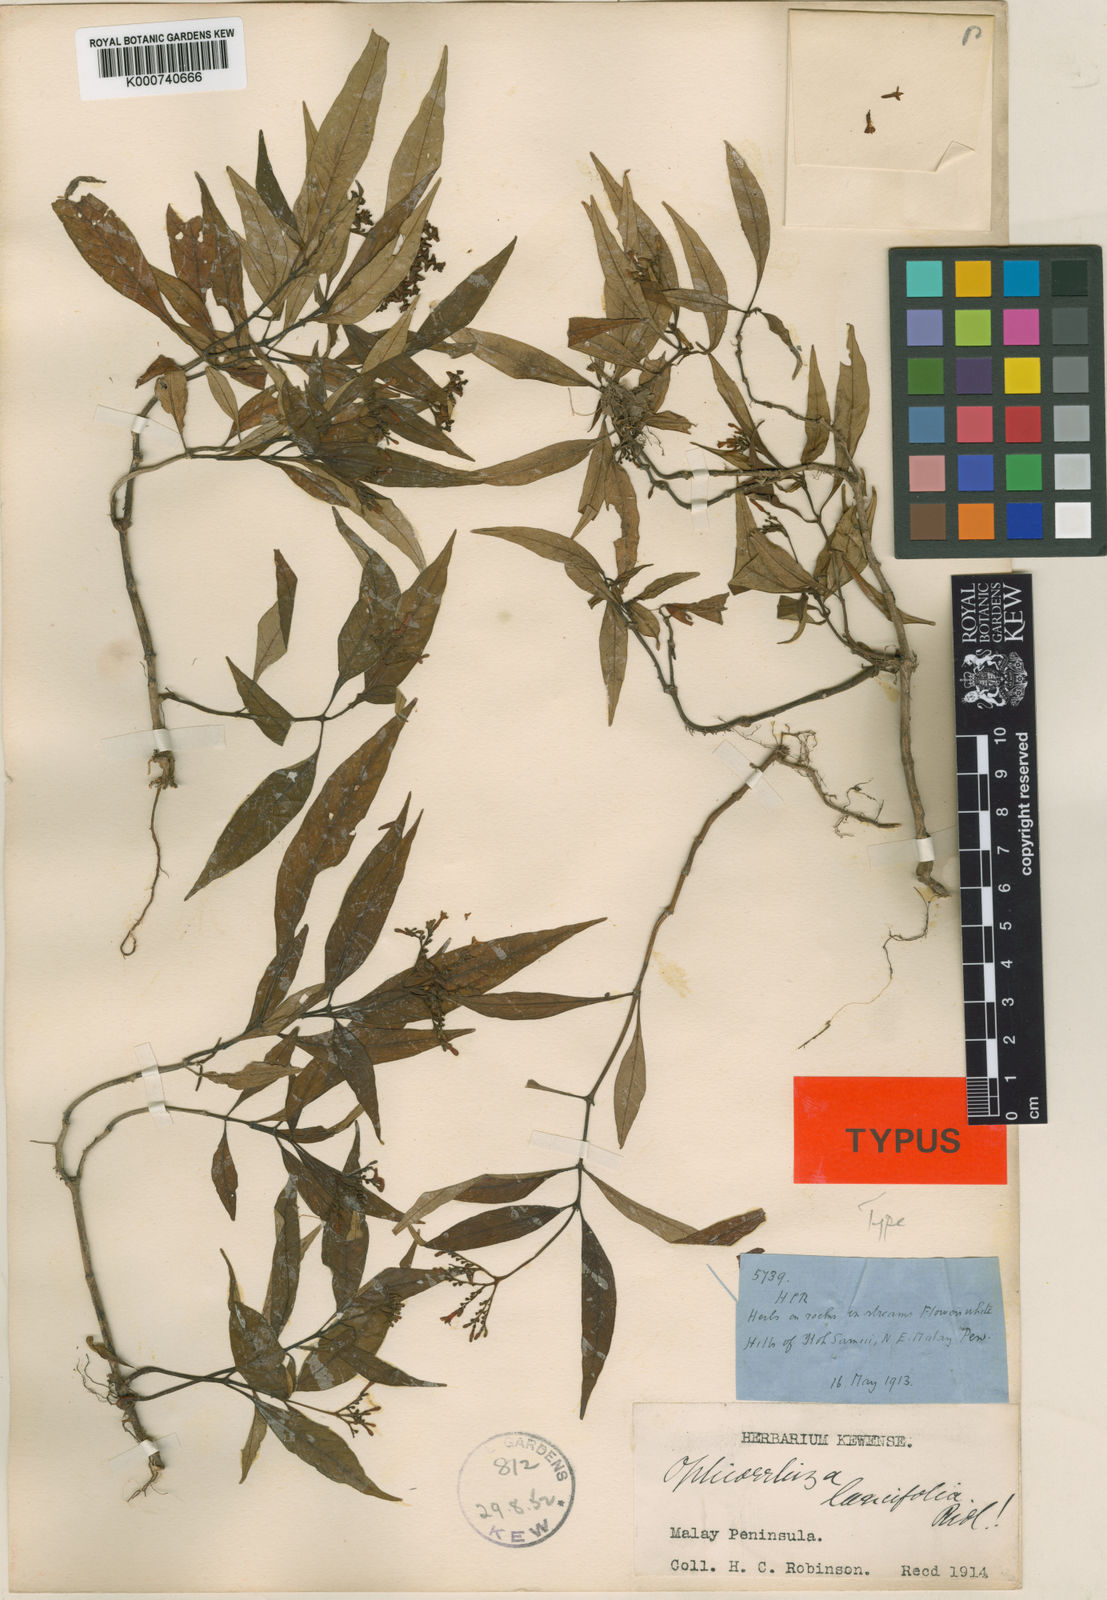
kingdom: Plantae
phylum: Tracheophyta
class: Magnoliopsida
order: Gentianales
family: Rubiaceae
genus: Ophiorrhiza
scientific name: Ophiorrhiza lancifolia
